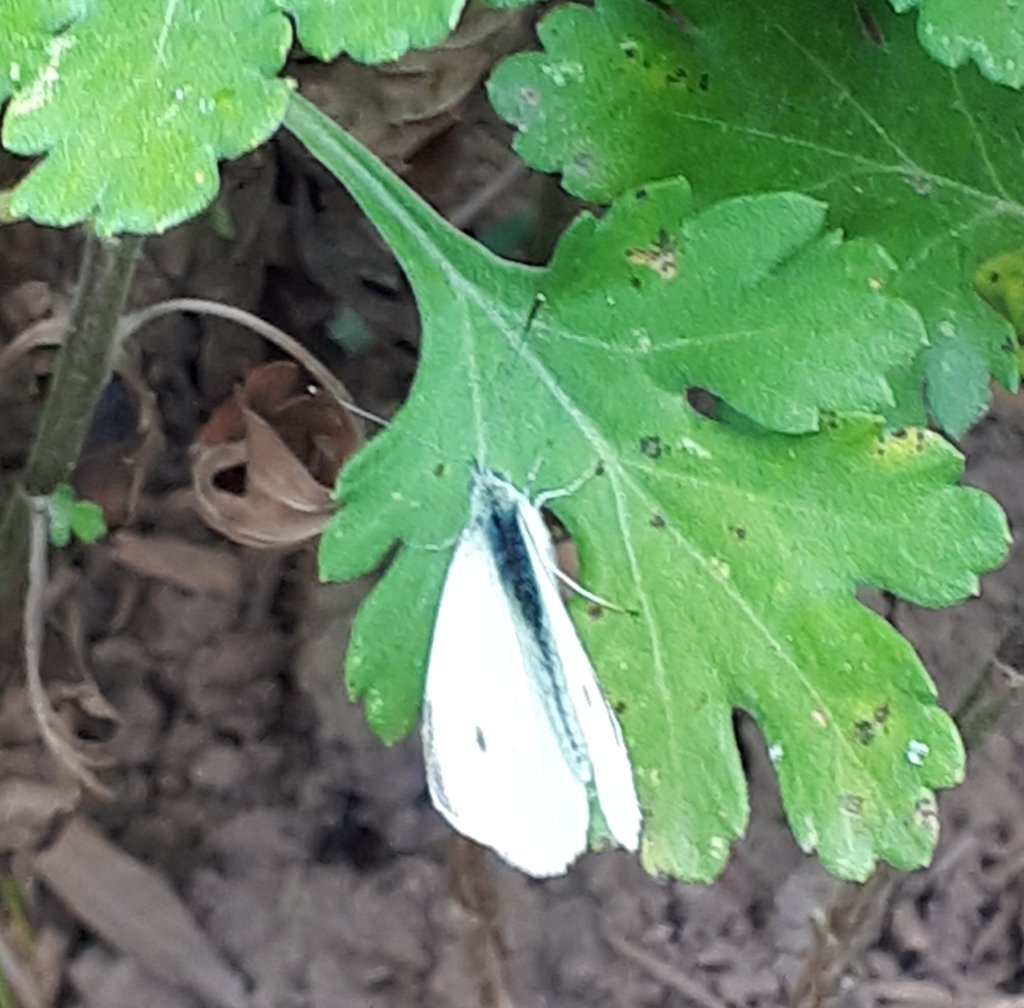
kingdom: Animalia
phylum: Arthropoda
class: Insecta
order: Lepidoptera
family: Pieridae
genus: Pieris
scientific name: Pieris rapae
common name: Cabbage White
